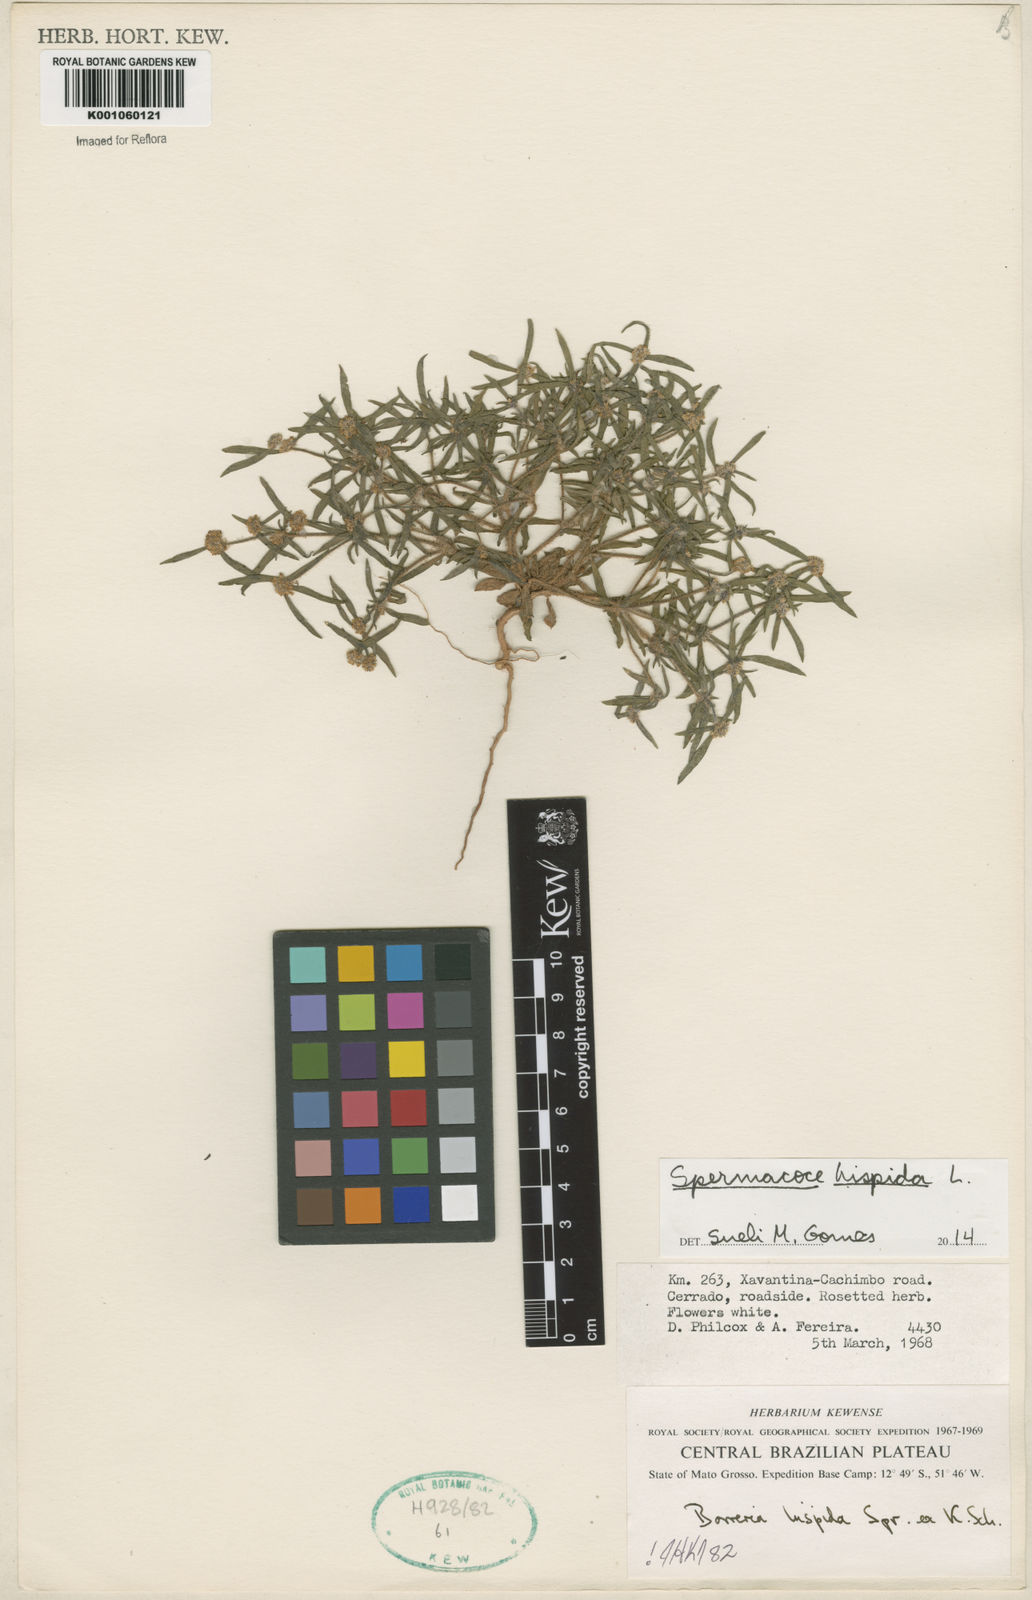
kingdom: Plantae
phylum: Tracheophyta
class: Magnoliopsida
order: Gentianales
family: Rubiaceae
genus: Spermacoce
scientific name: Spermacoce hispida
